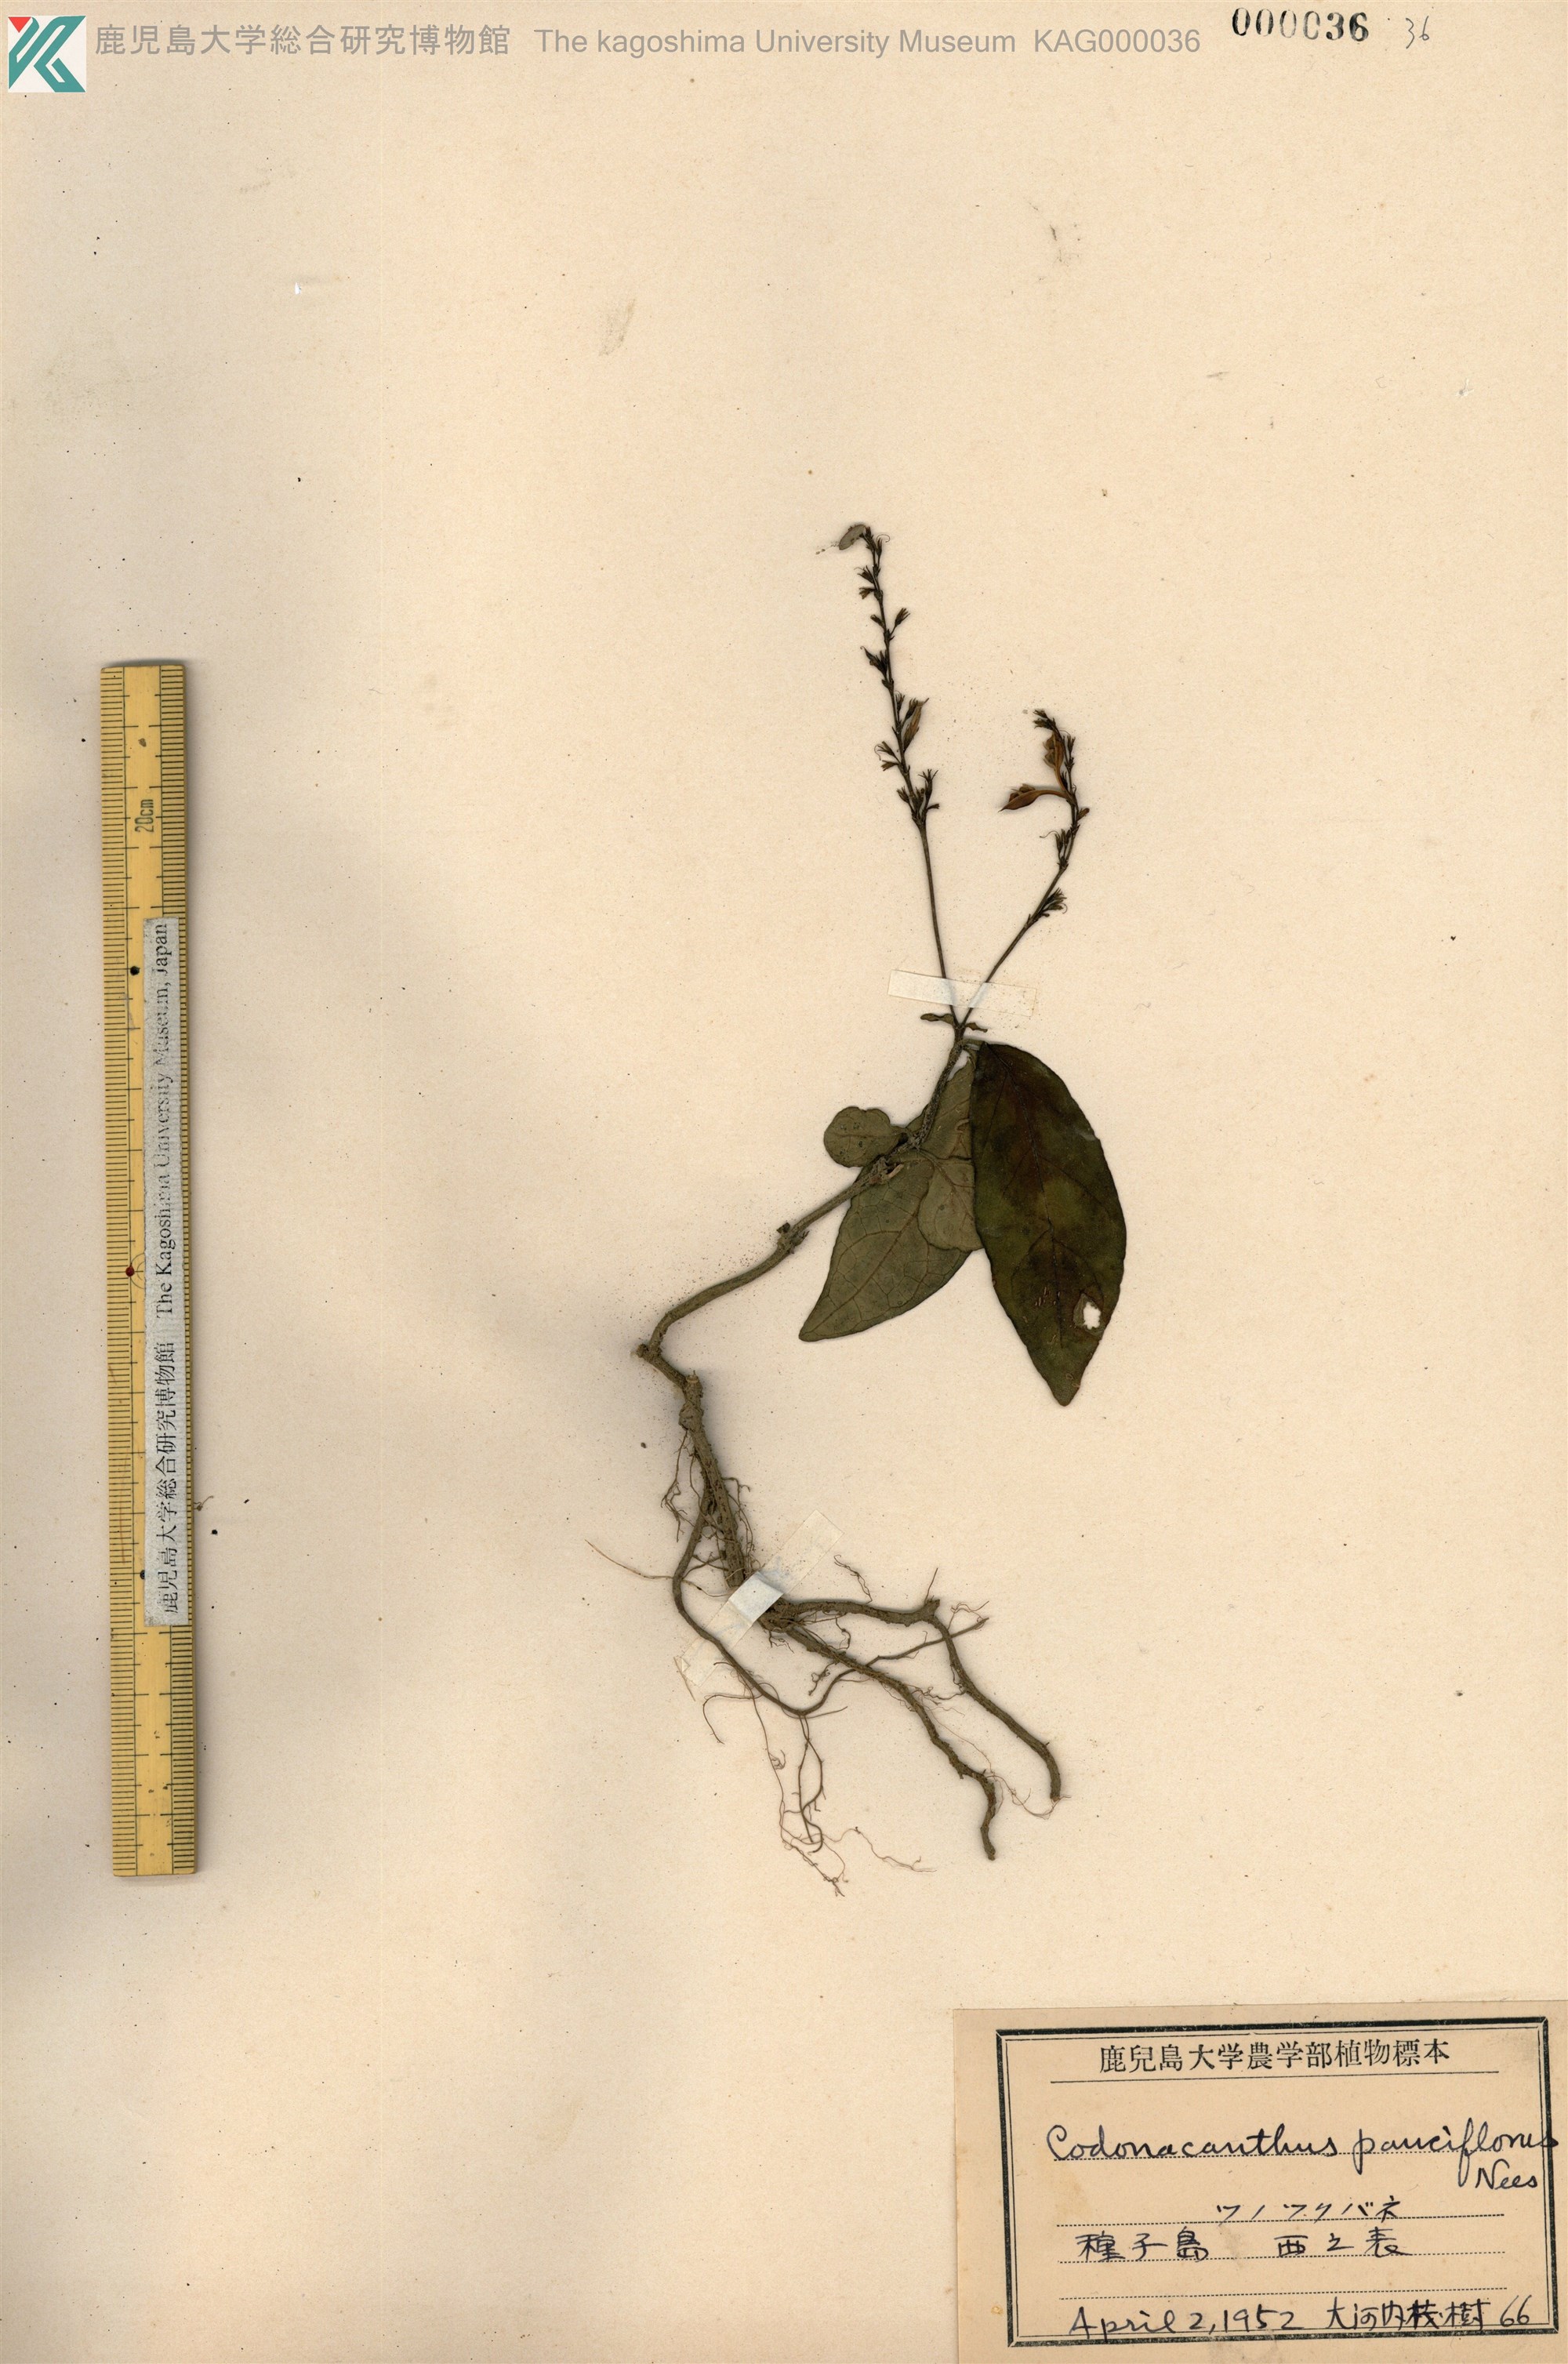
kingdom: Plantae
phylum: Tracheophyta
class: Magnoliopsida
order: Lamiales
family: Acanthaceae
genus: Codonacanthus
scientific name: Codonacanthus pauciflorus
